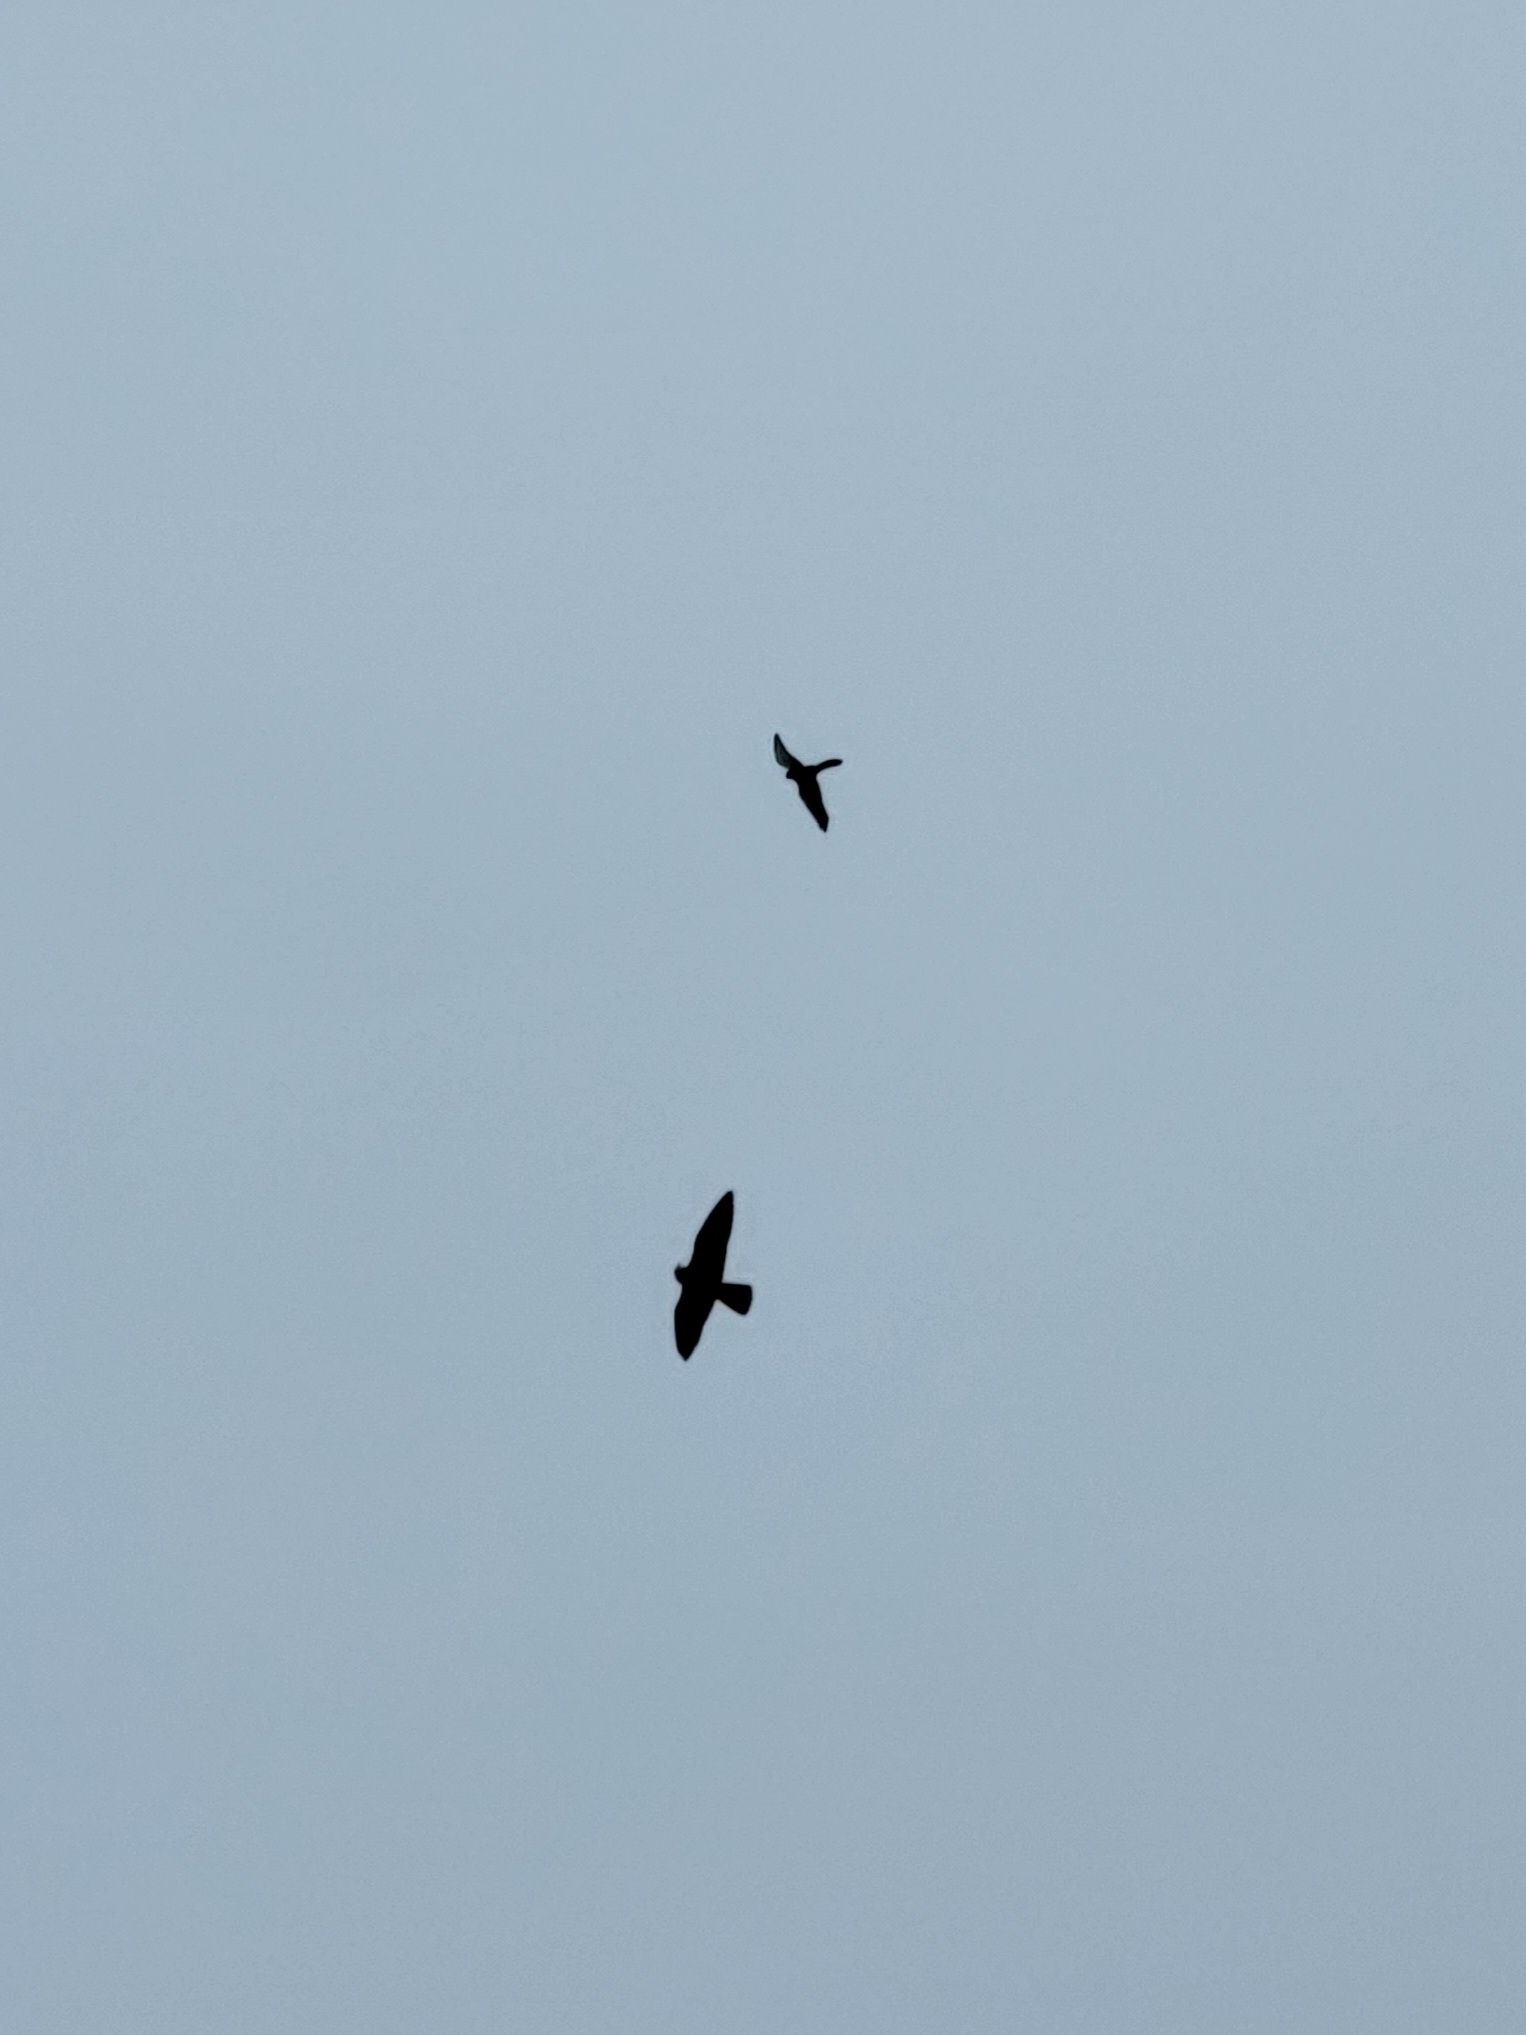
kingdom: Animalia
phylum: Chordata
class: Aves
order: Falconiformes
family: Falconidae
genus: Falco
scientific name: Falco peregrinus
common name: Vandrefalk
